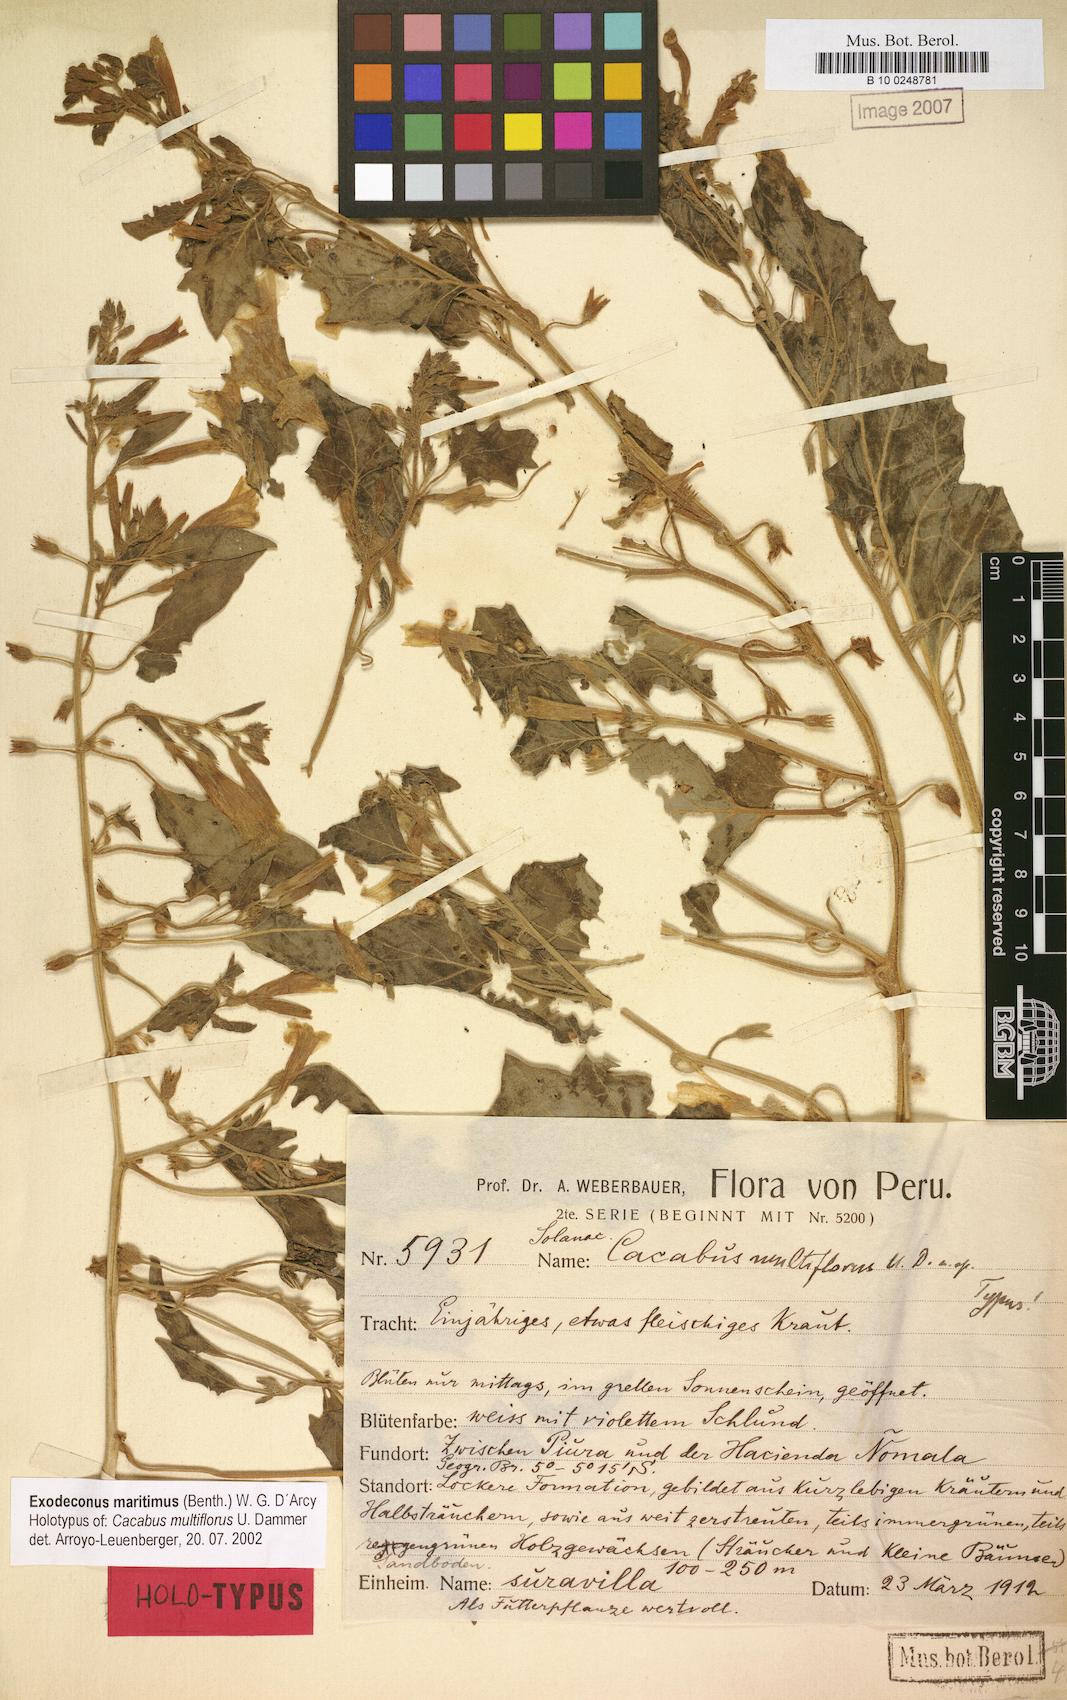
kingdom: Plantae
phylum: Tracheophyta
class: Magnoliopsida
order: Solanales
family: Solanaceae
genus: Exodeconus
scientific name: Exodeconus maritima
